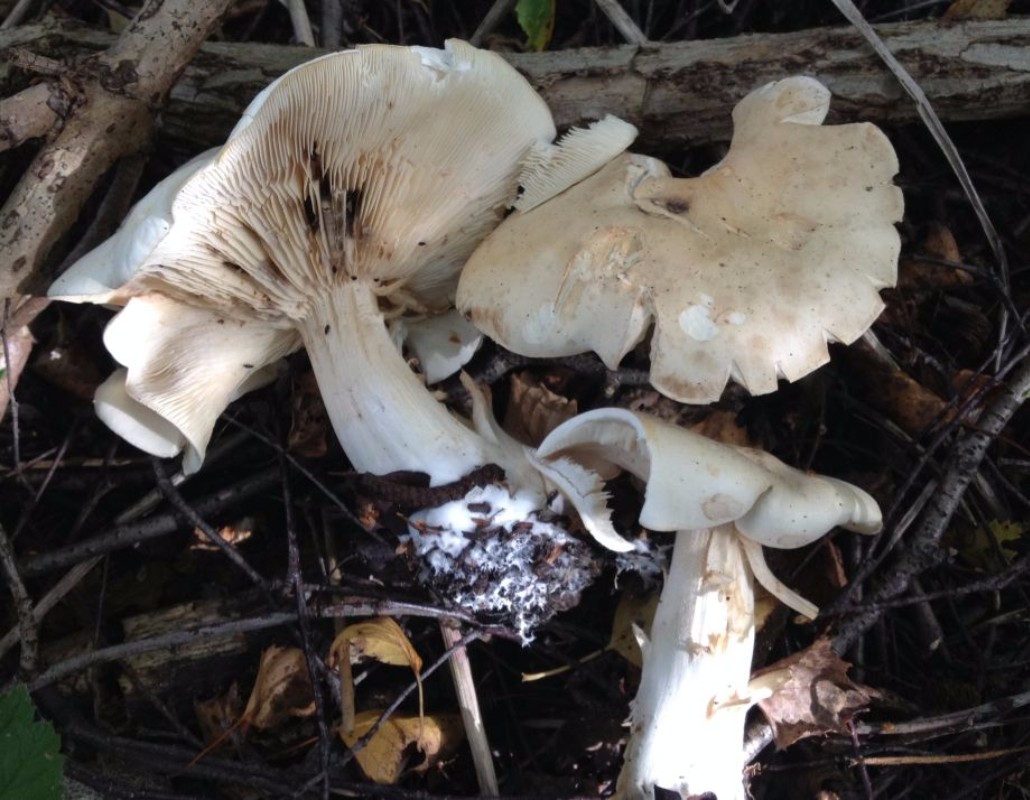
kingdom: Fungi
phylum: Basidiomycota
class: Agaricomycetes
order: Agaricales
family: Tricholomataceae
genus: Tricholoma
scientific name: Tricholoma stiparophyllum
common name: hvid ridderhat
